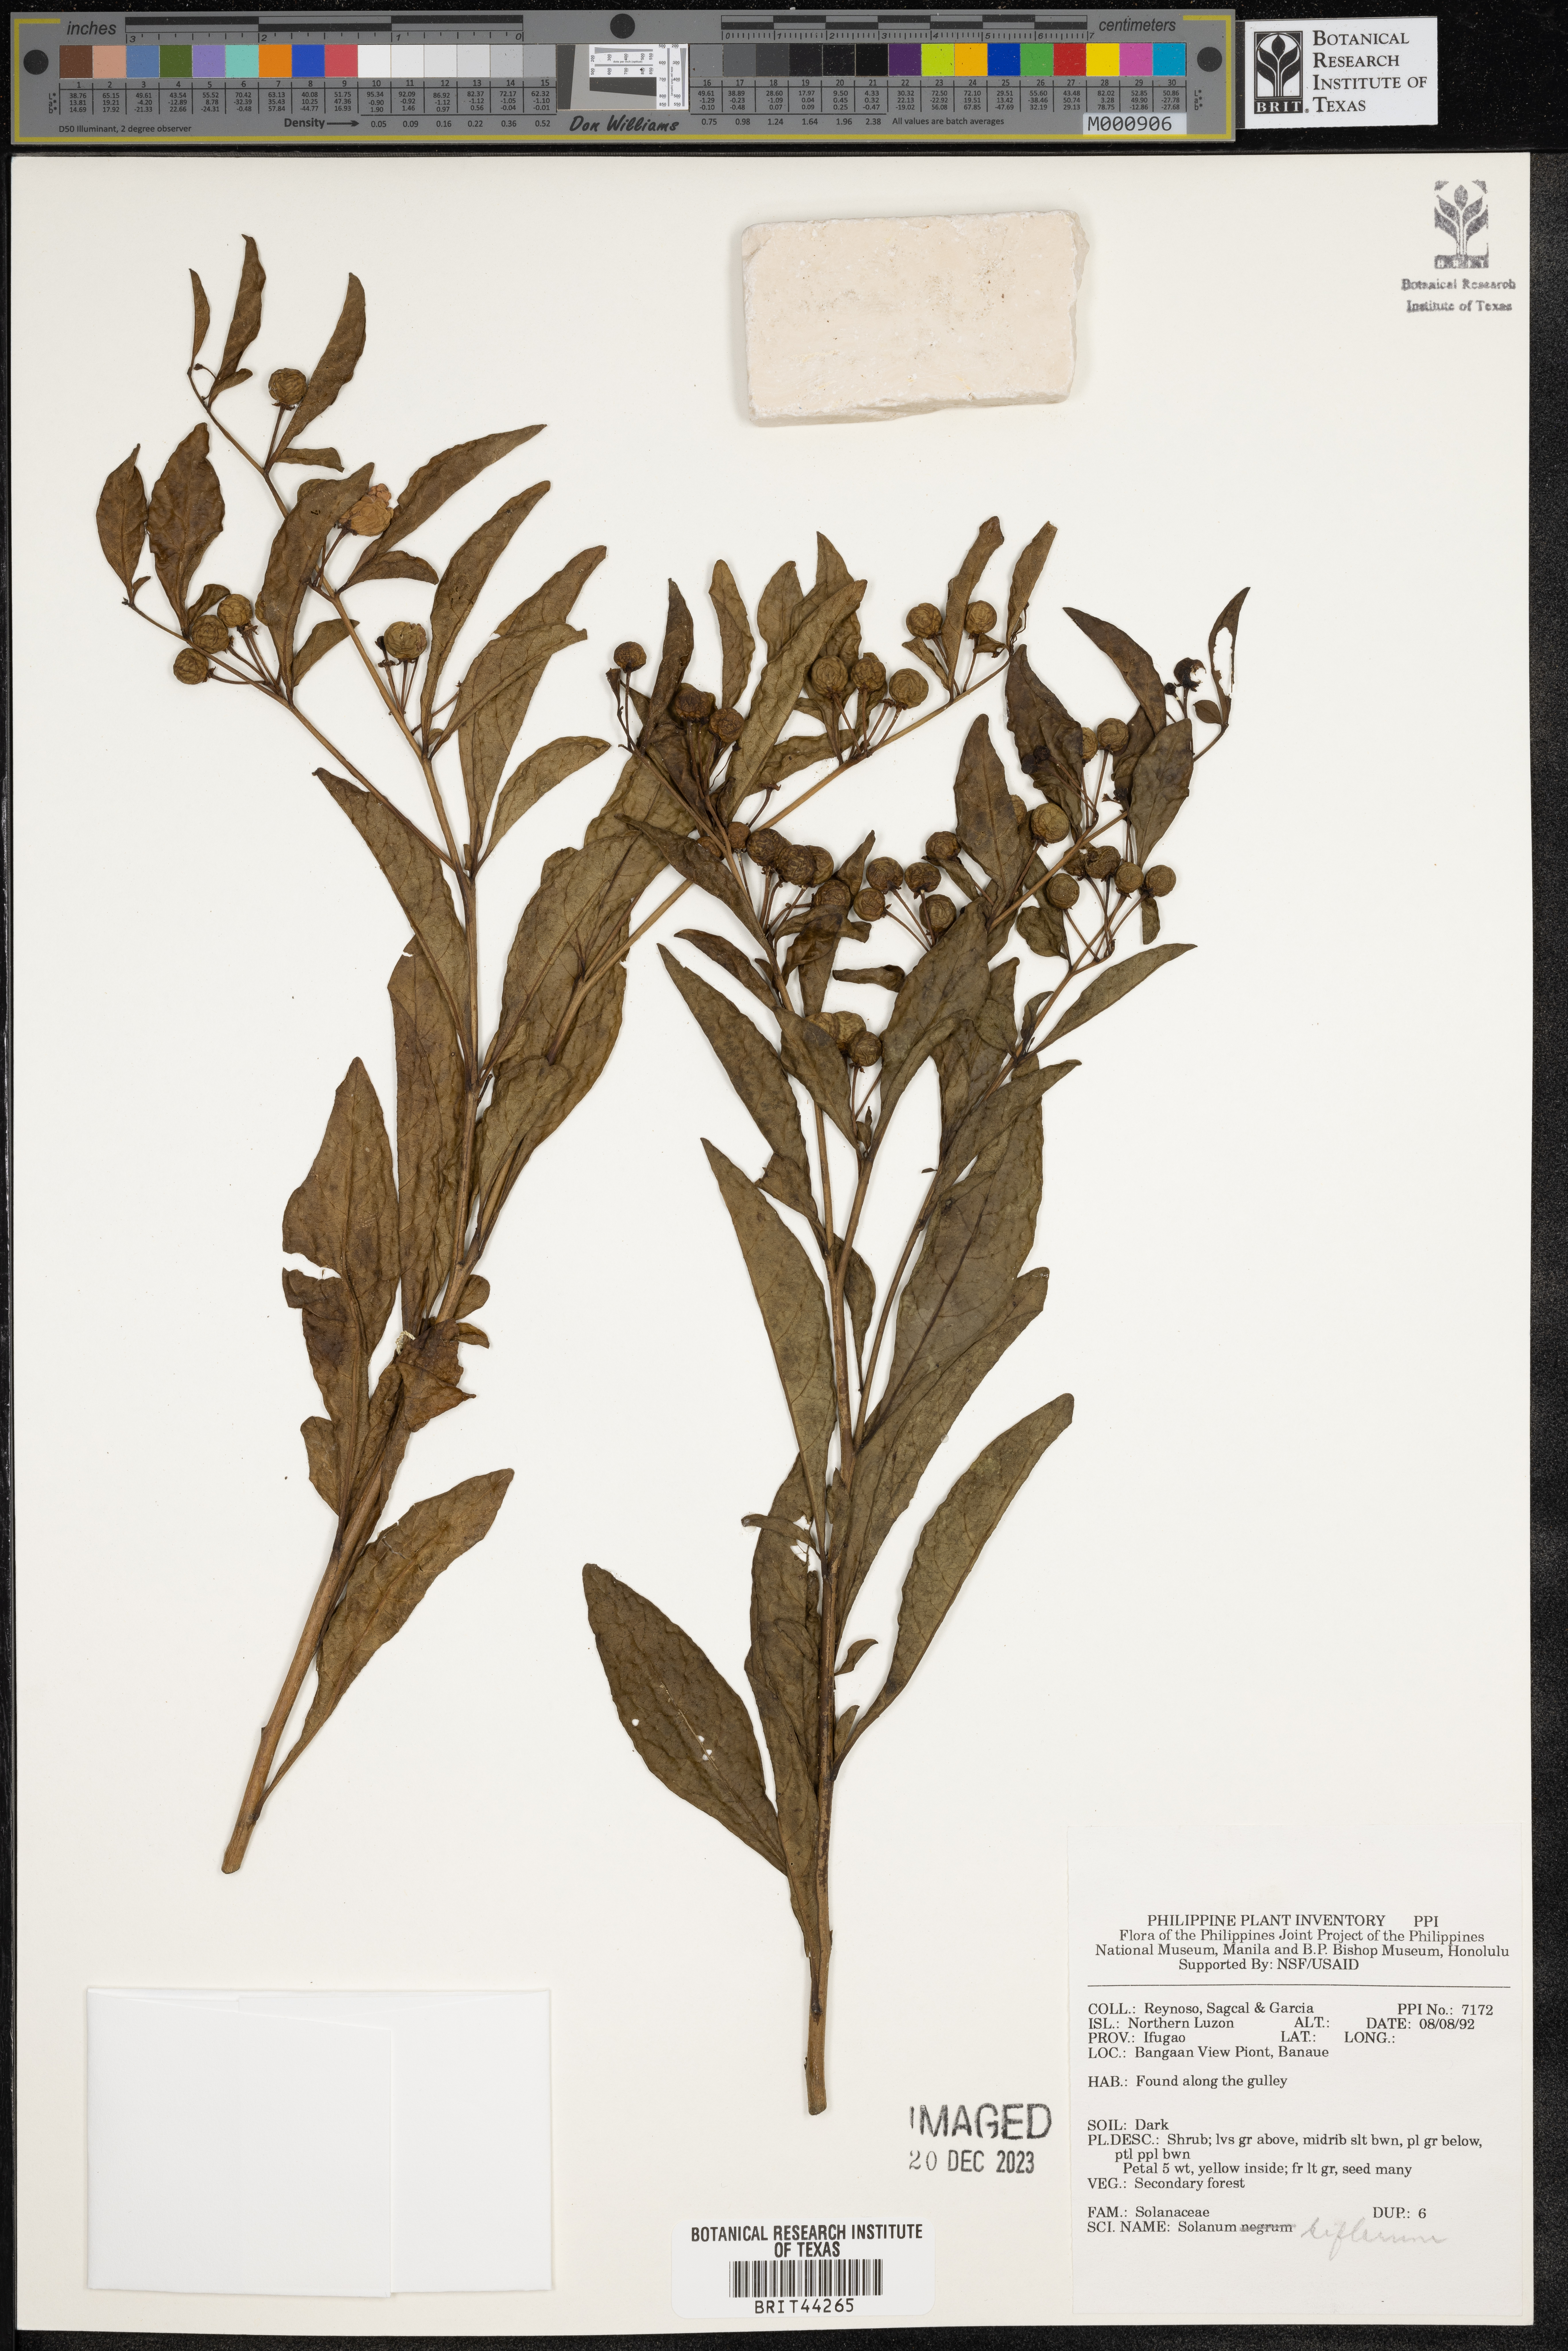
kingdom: Plantae
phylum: Tracheophyta
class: Magnoliopsida
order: Solanales
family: Solanaceae
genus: Lycianthes
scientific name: Lycianthes biflora
